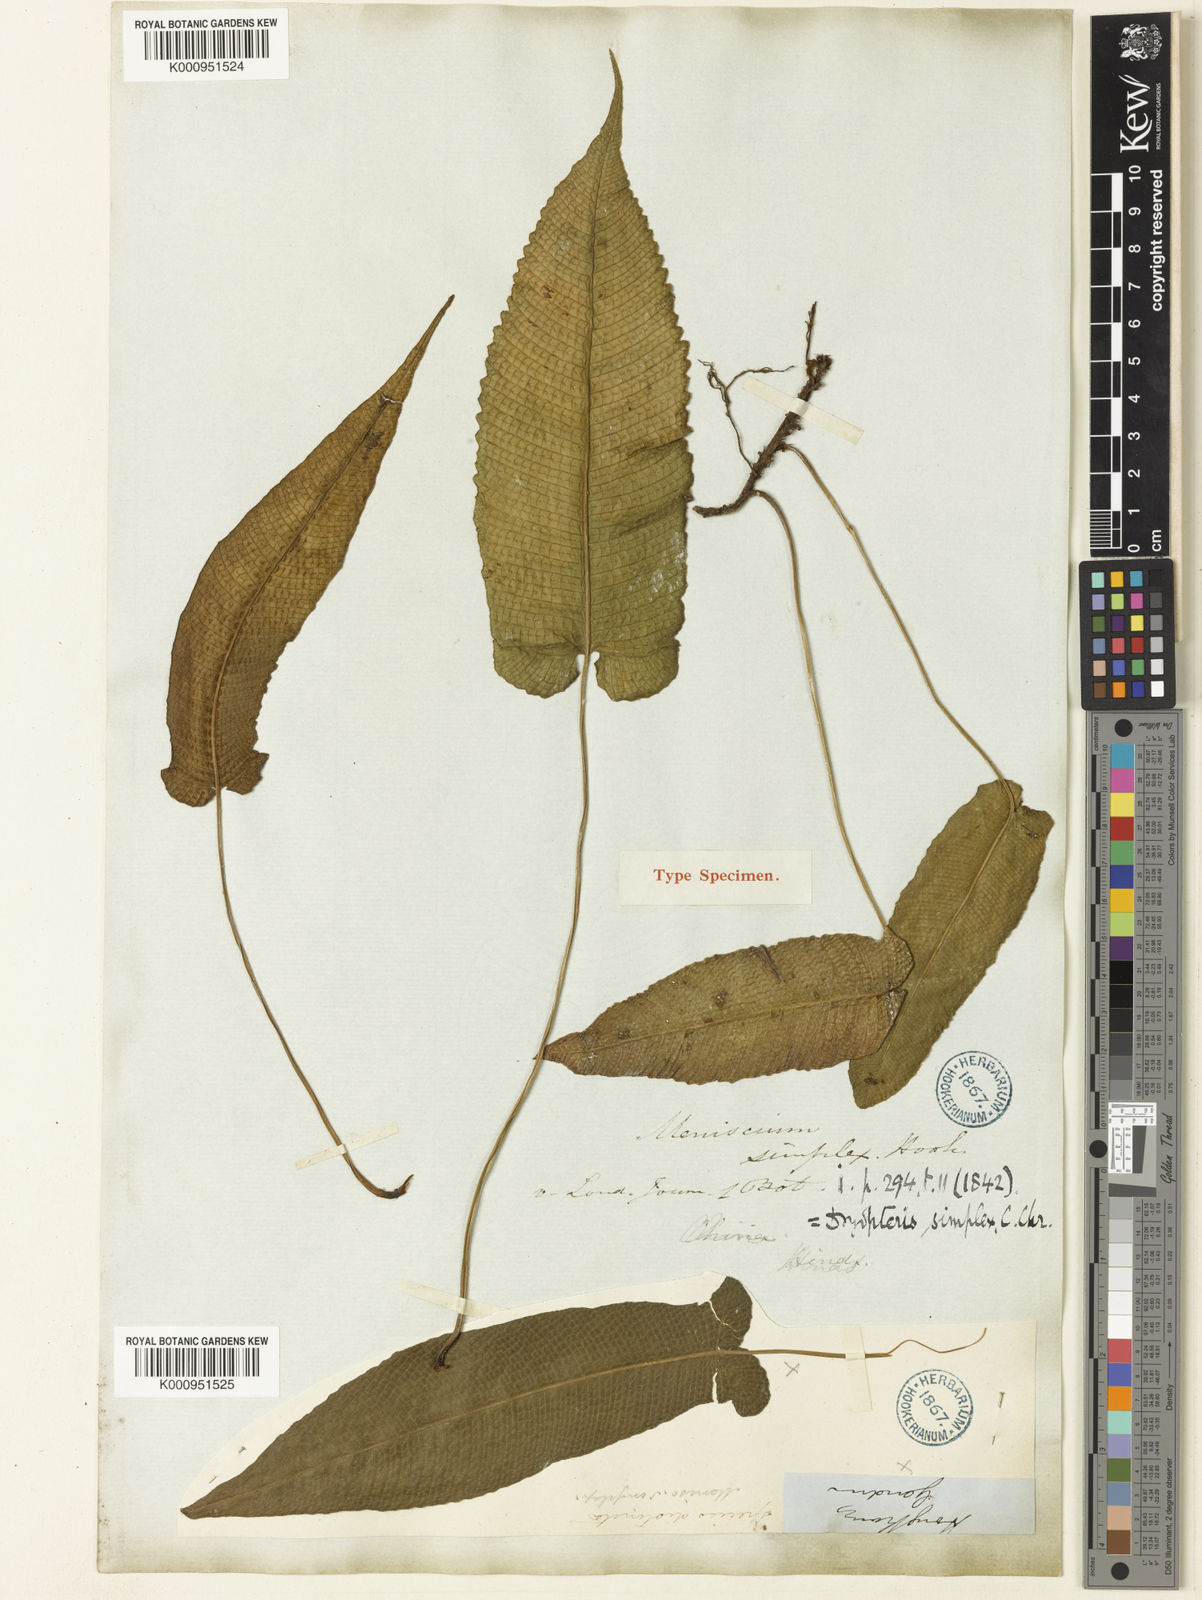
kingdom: Plantae
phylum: Tracheophyta
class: Polypodiopsida
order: Polypodiales
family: Thelypteridaceae
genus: Grypothrix
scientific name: Grypothrix simplex
